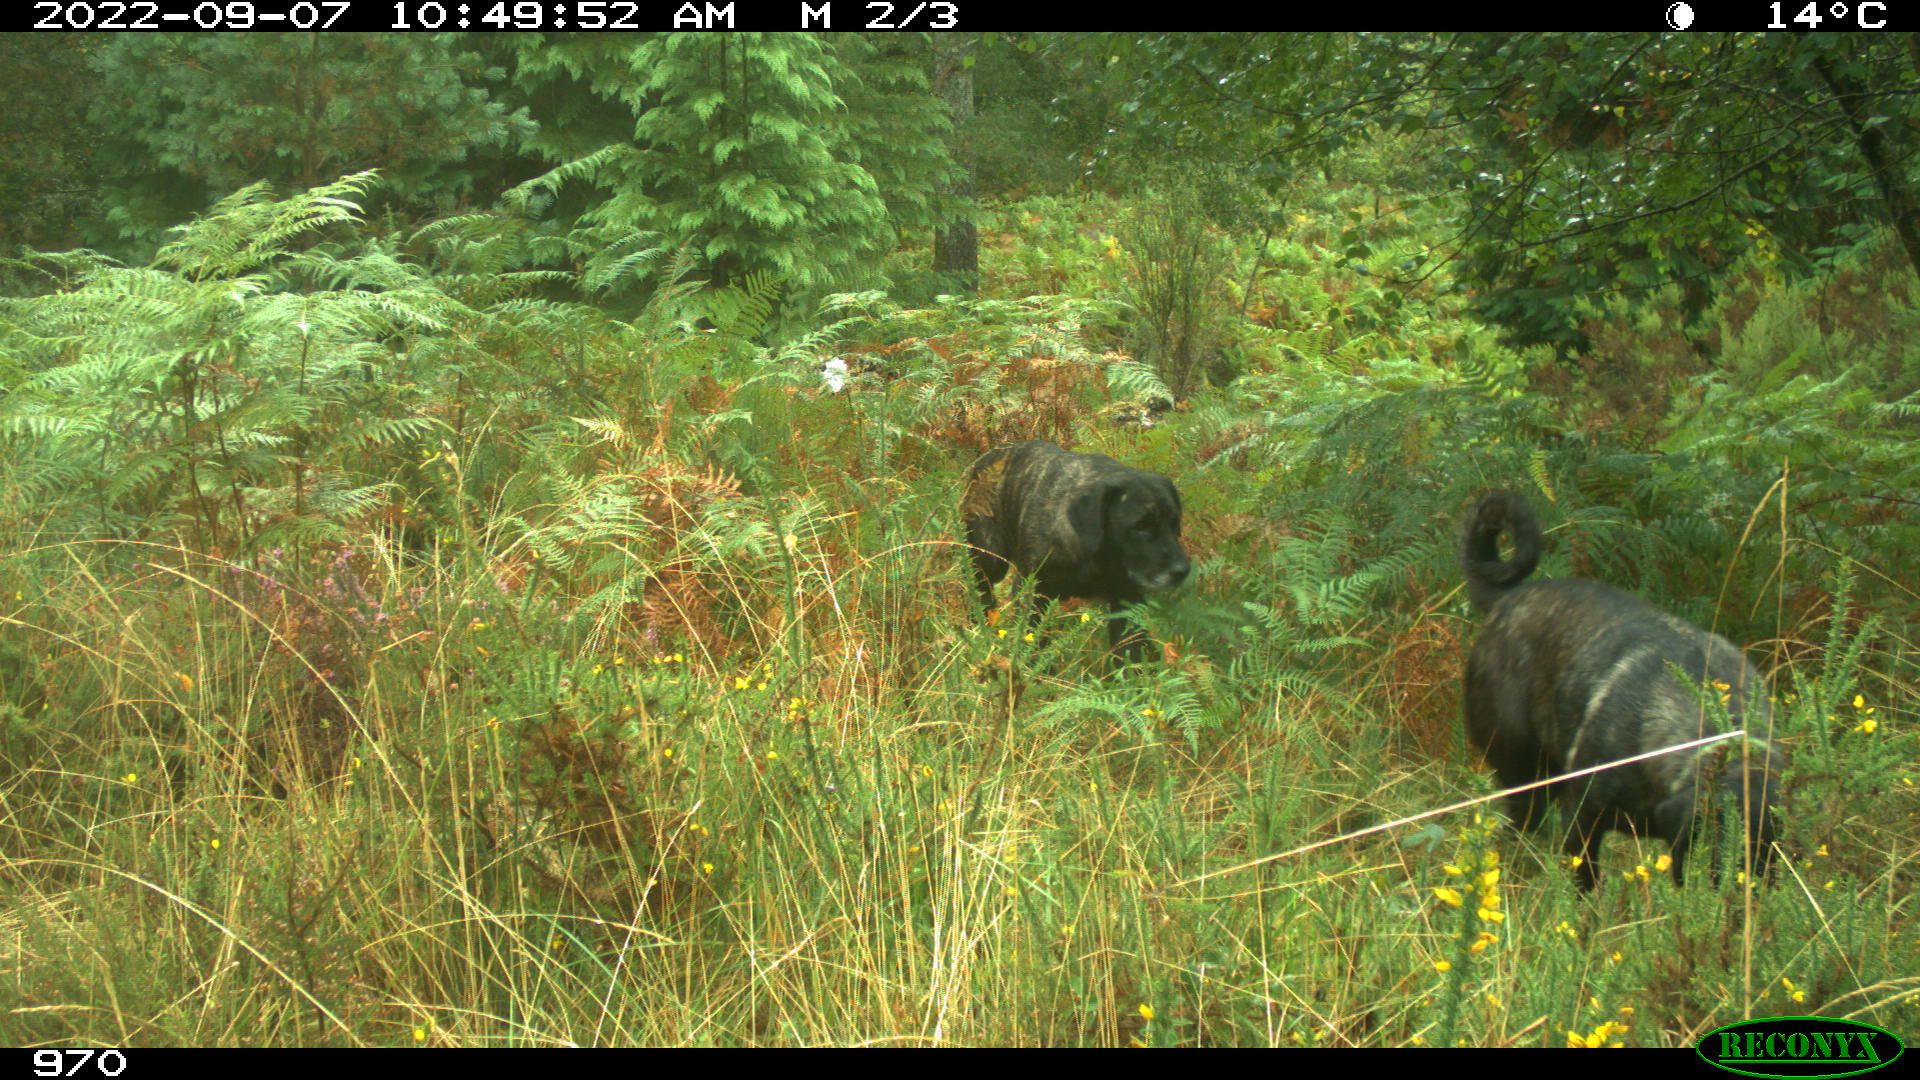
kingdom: Animalia
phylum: Chordata
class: Mammalia
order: Carnivora
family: Canidae
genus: Canis
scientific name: Canis lupus
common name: Gray wolf
